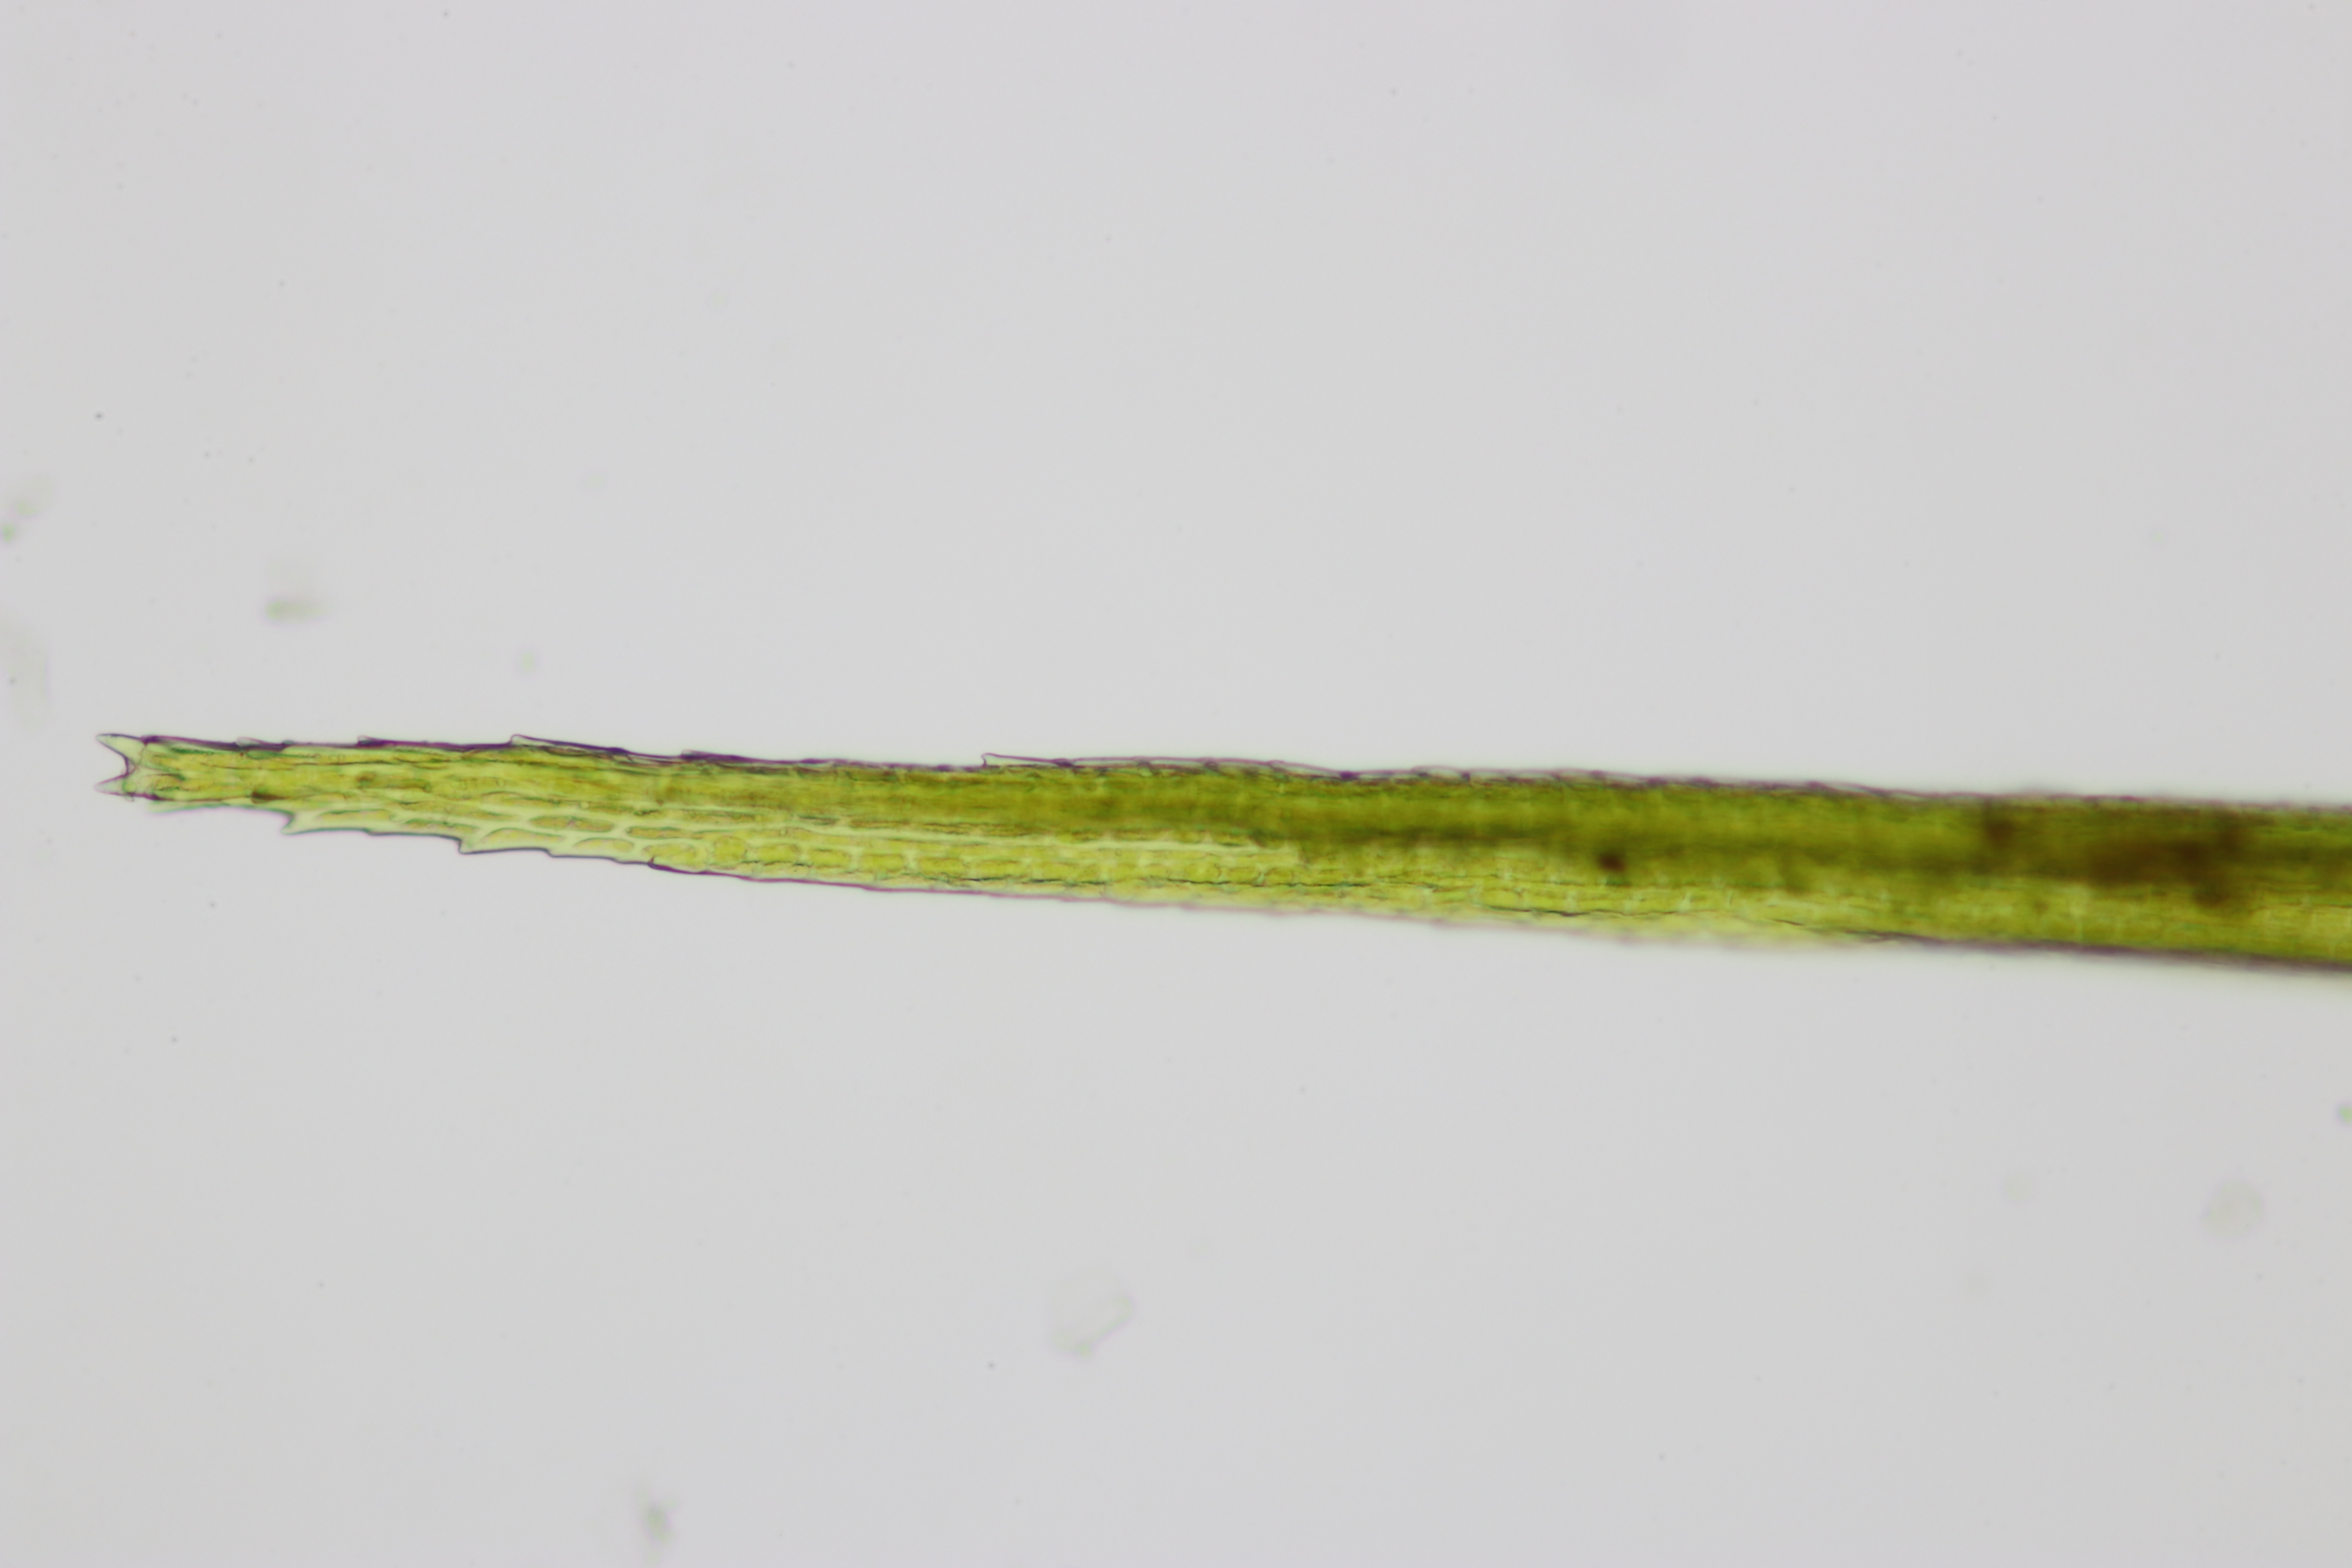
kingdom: Plantae
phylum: Bryophyta
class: Bryopsida
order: Dicranales
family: Leucobryaceae
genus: Campylopus
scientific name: Campylopus flexuosus
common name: Filtet bredribbe
